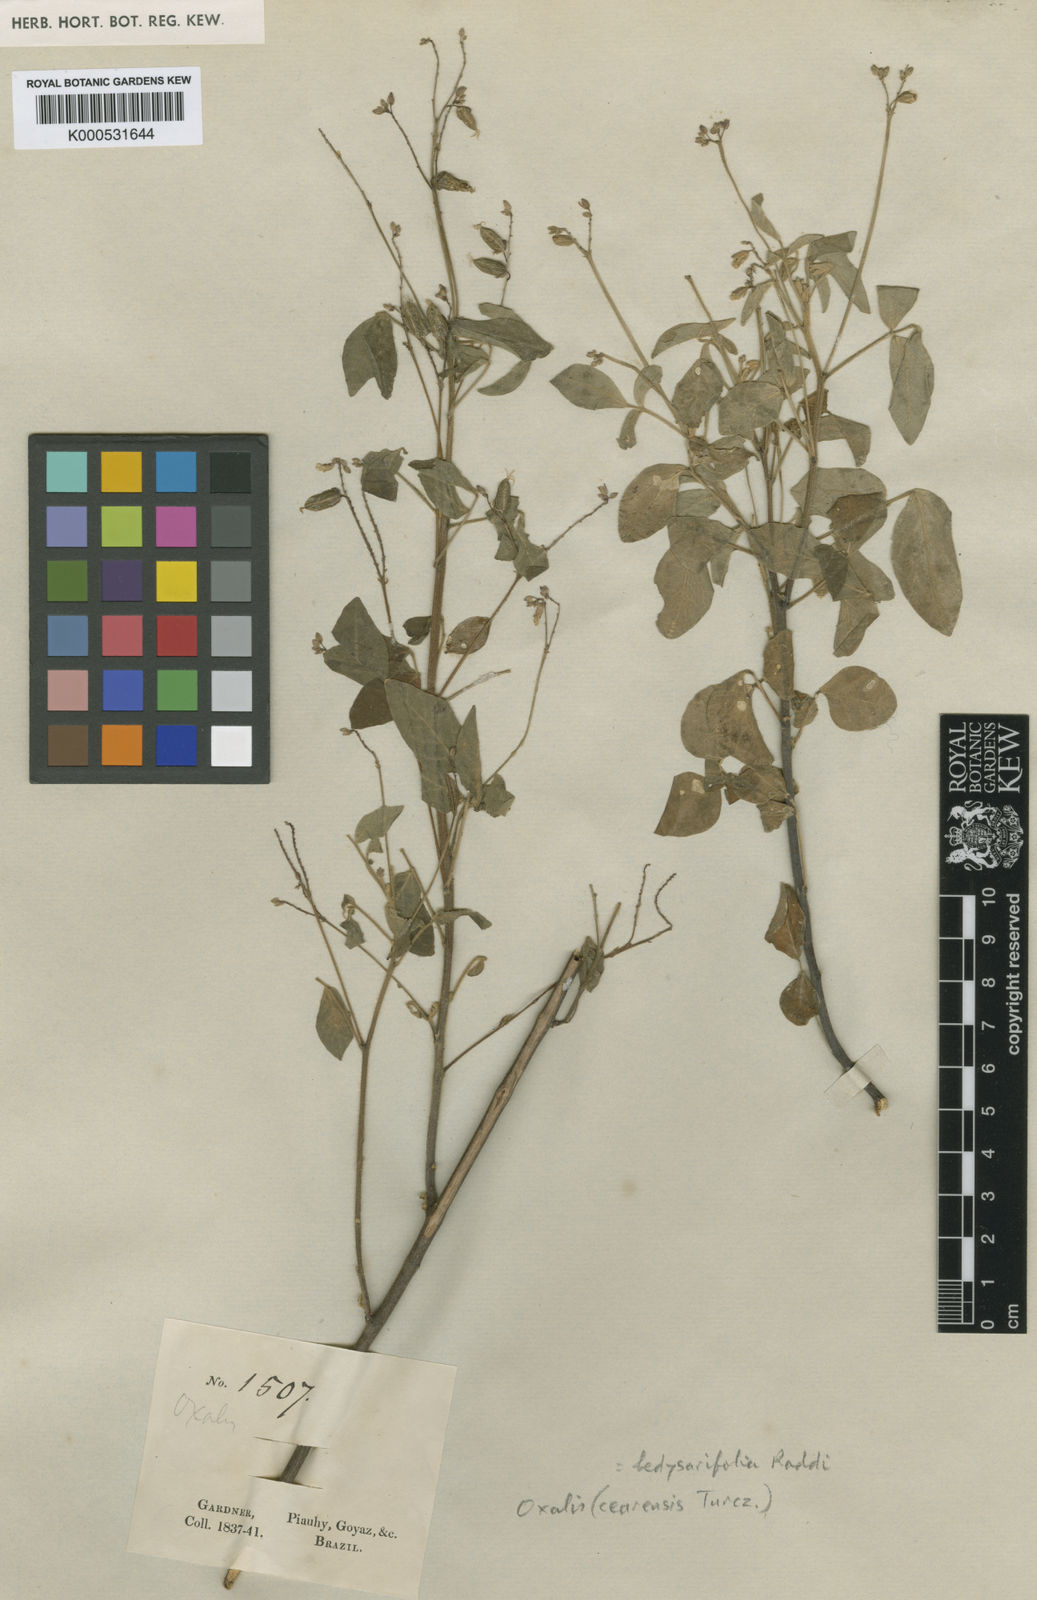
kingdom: Plantae
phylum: Tracheophyta
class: Magnoliopsida
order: Oxalidales
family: Oxalidaceae
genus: Oxalis
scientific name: Oxalis frutescens
